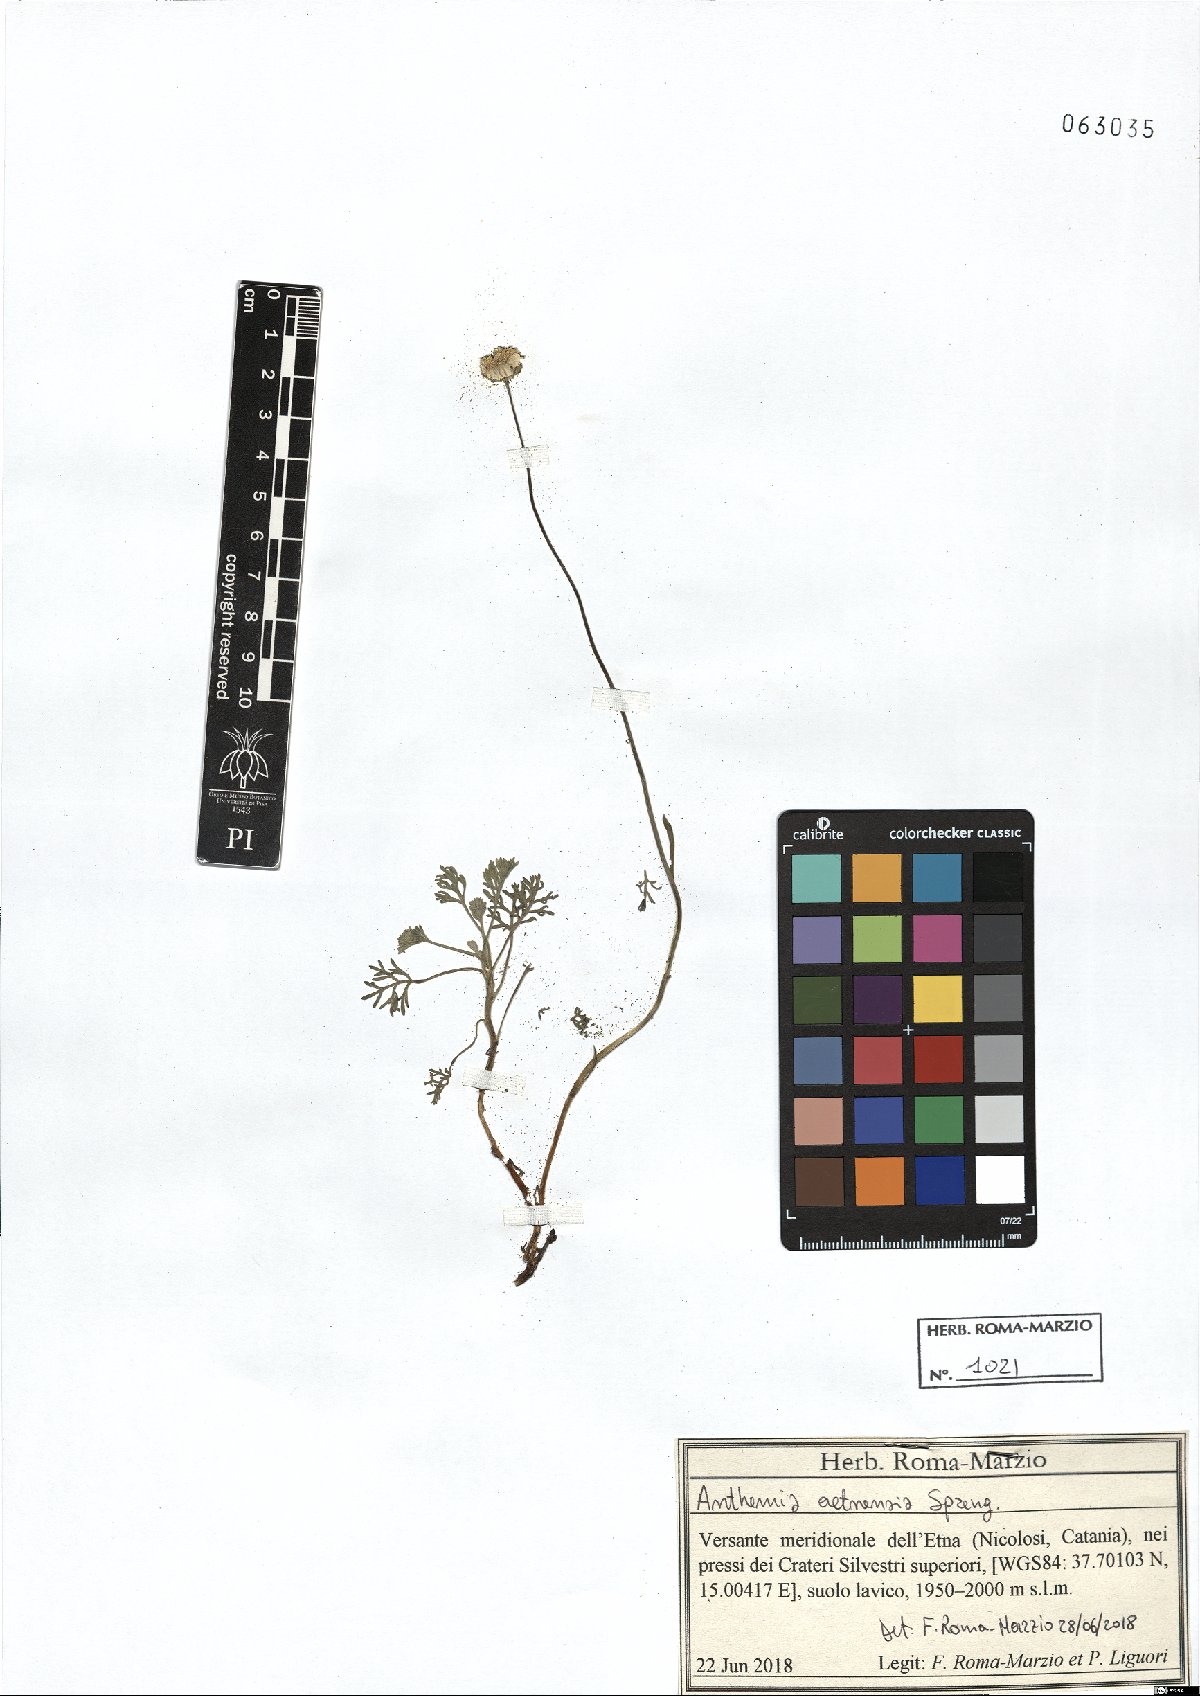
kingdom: Plantae
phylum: Tracheophyta
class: Magnoliopsida
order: Asterales
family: Asteraceae
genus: Anthemis
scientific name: Anthemis aetnensis
